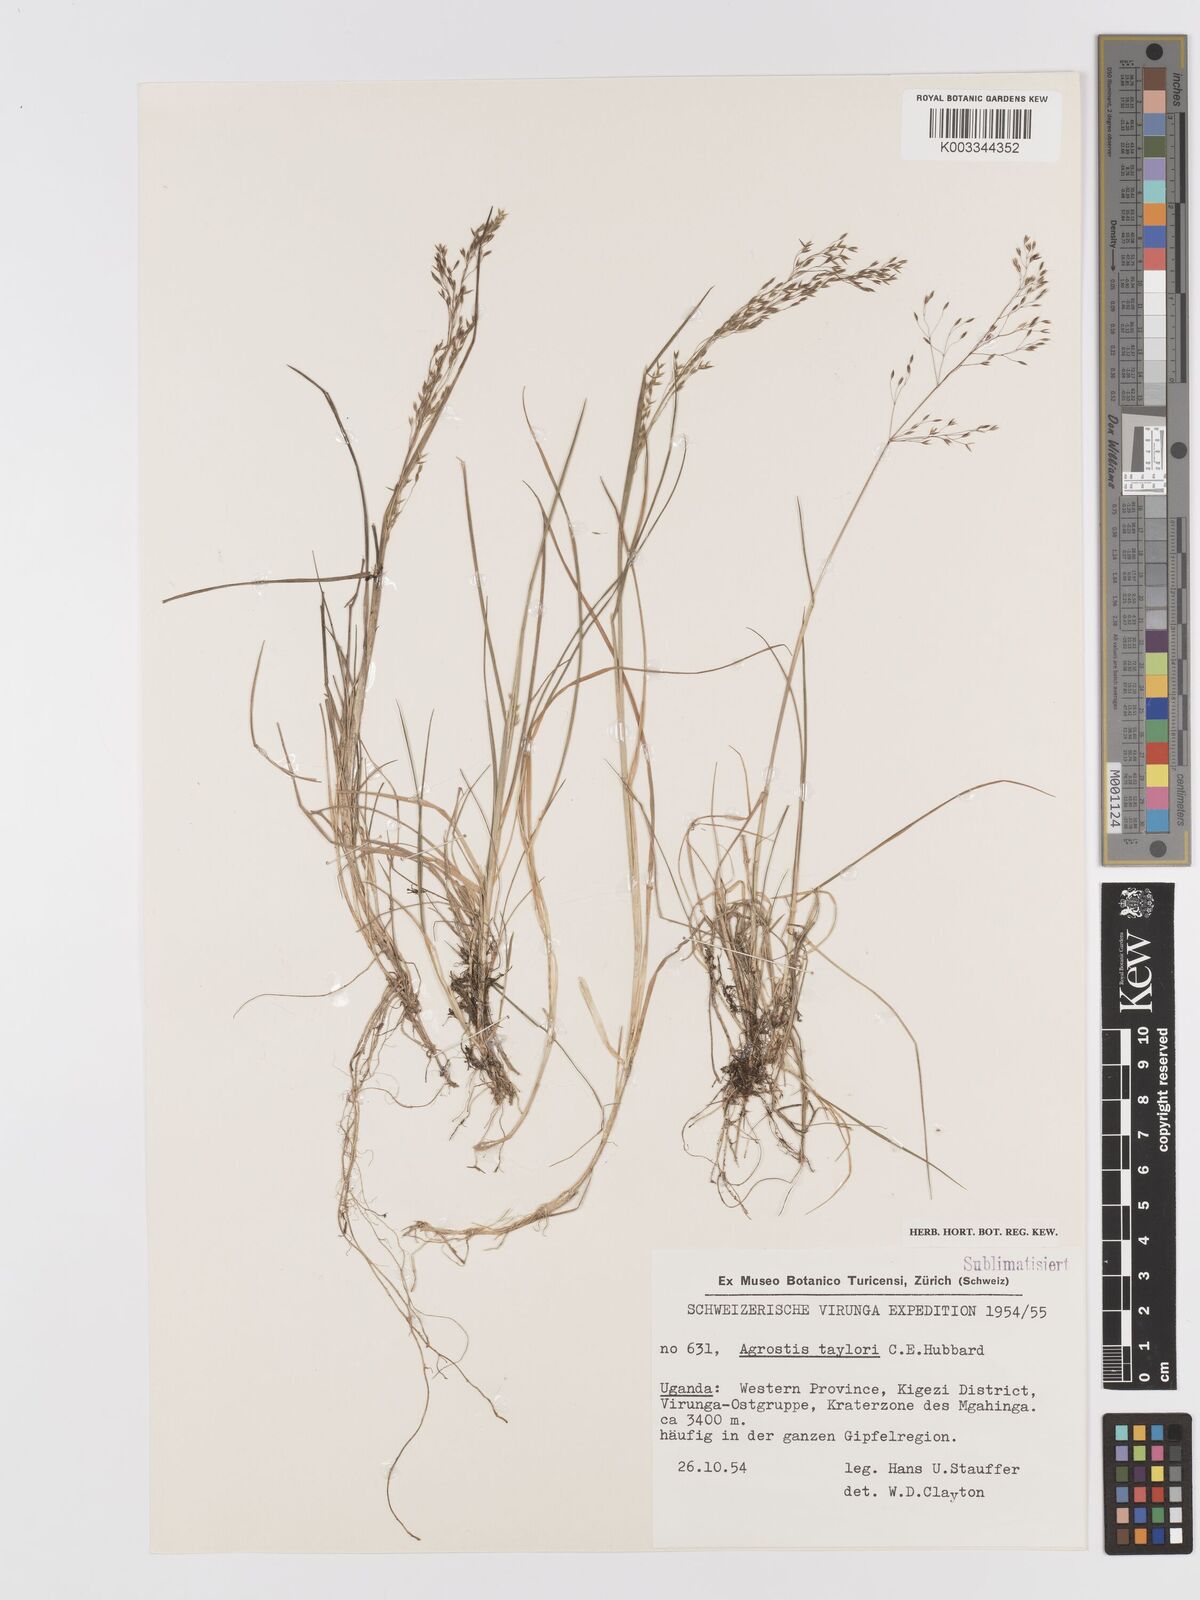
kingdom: Plantae
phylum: Tracheophyta
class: Liliopsida
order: Poales
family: Poaceae
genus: Agrostis
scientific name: Agrostis taylorii
